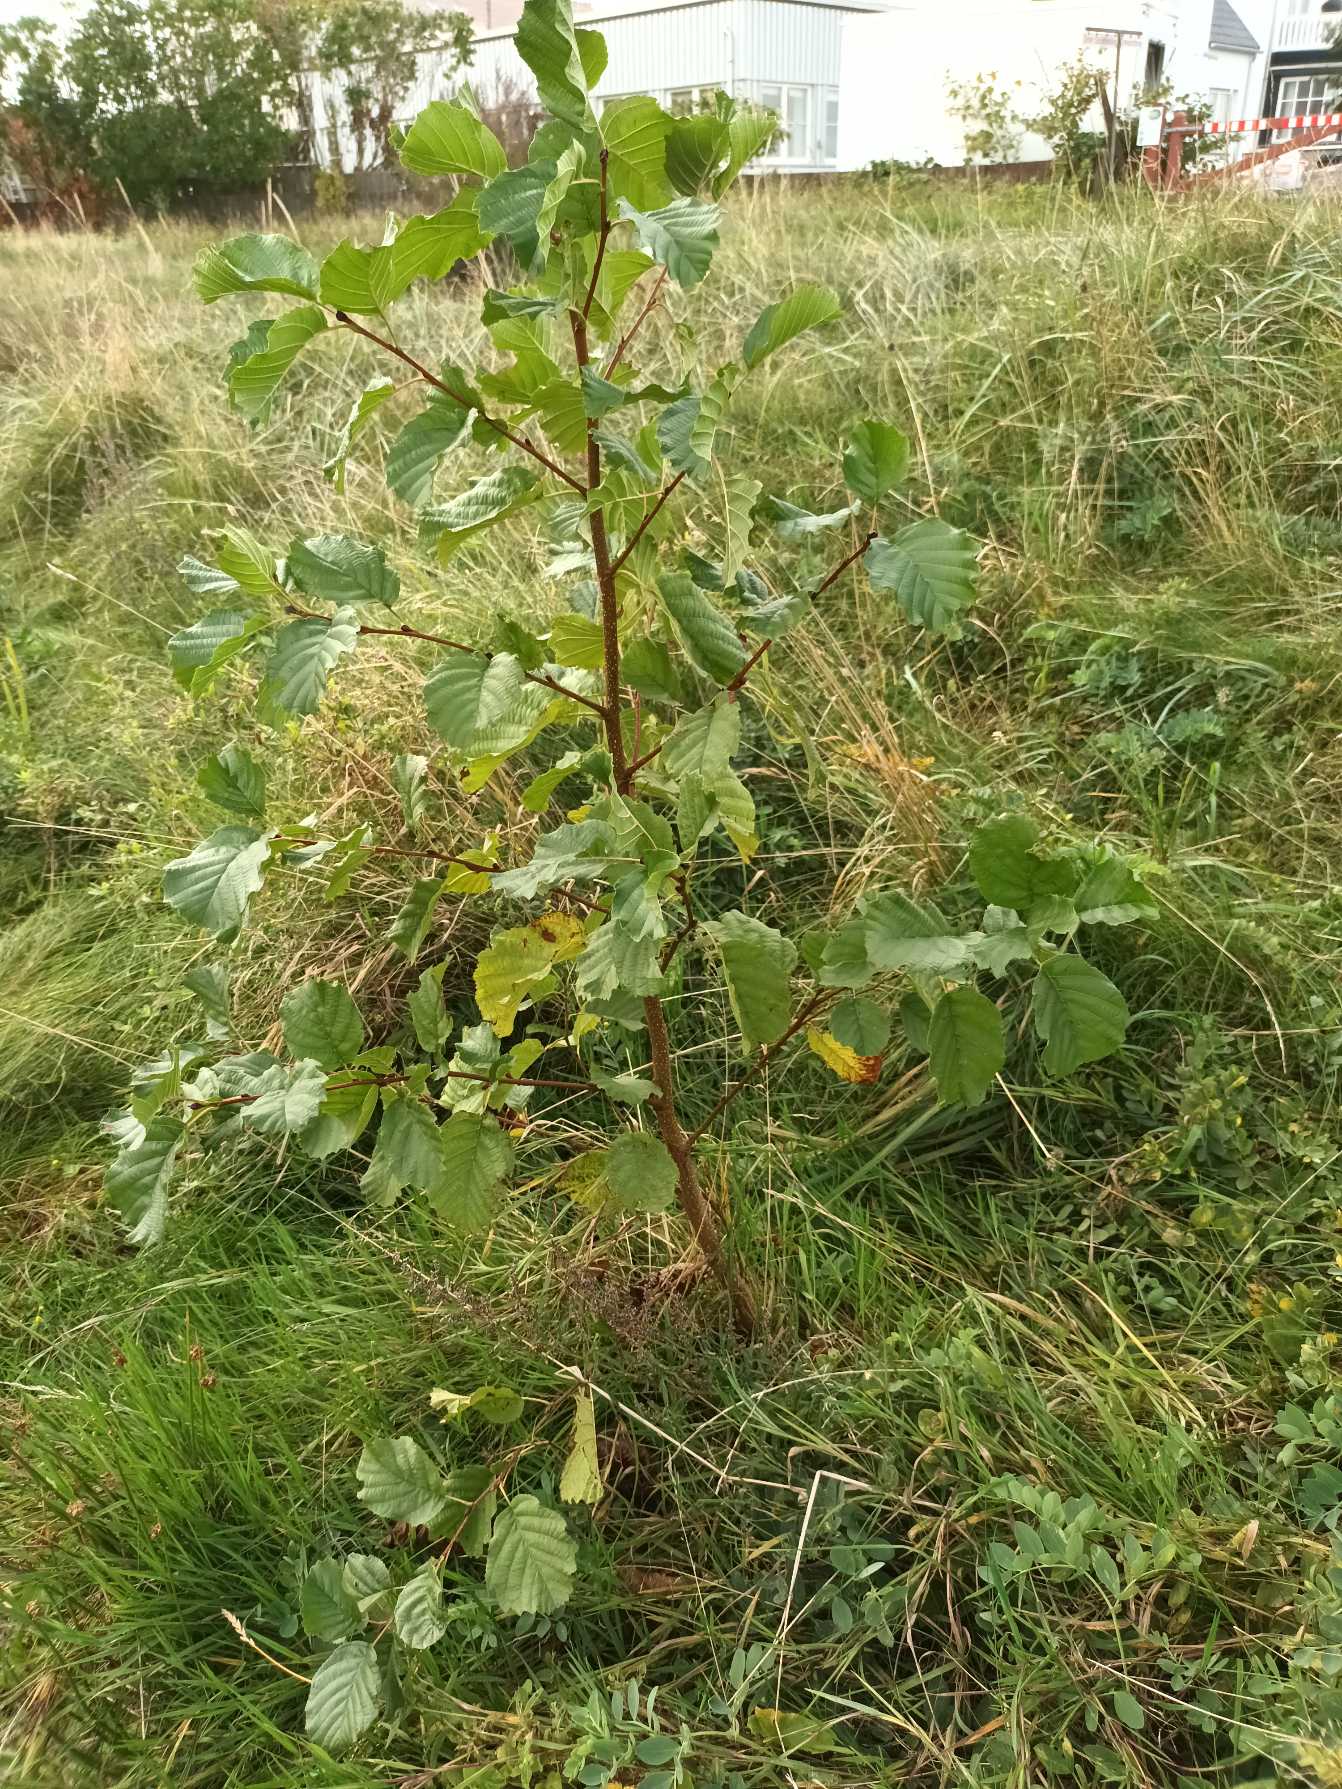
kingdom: Plantae
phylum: Tracheophyta
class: Magnoliopsida
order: Fagales
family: Betulaceae
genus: Alnus
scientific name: Alnus glutinosa
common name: Rød-el
